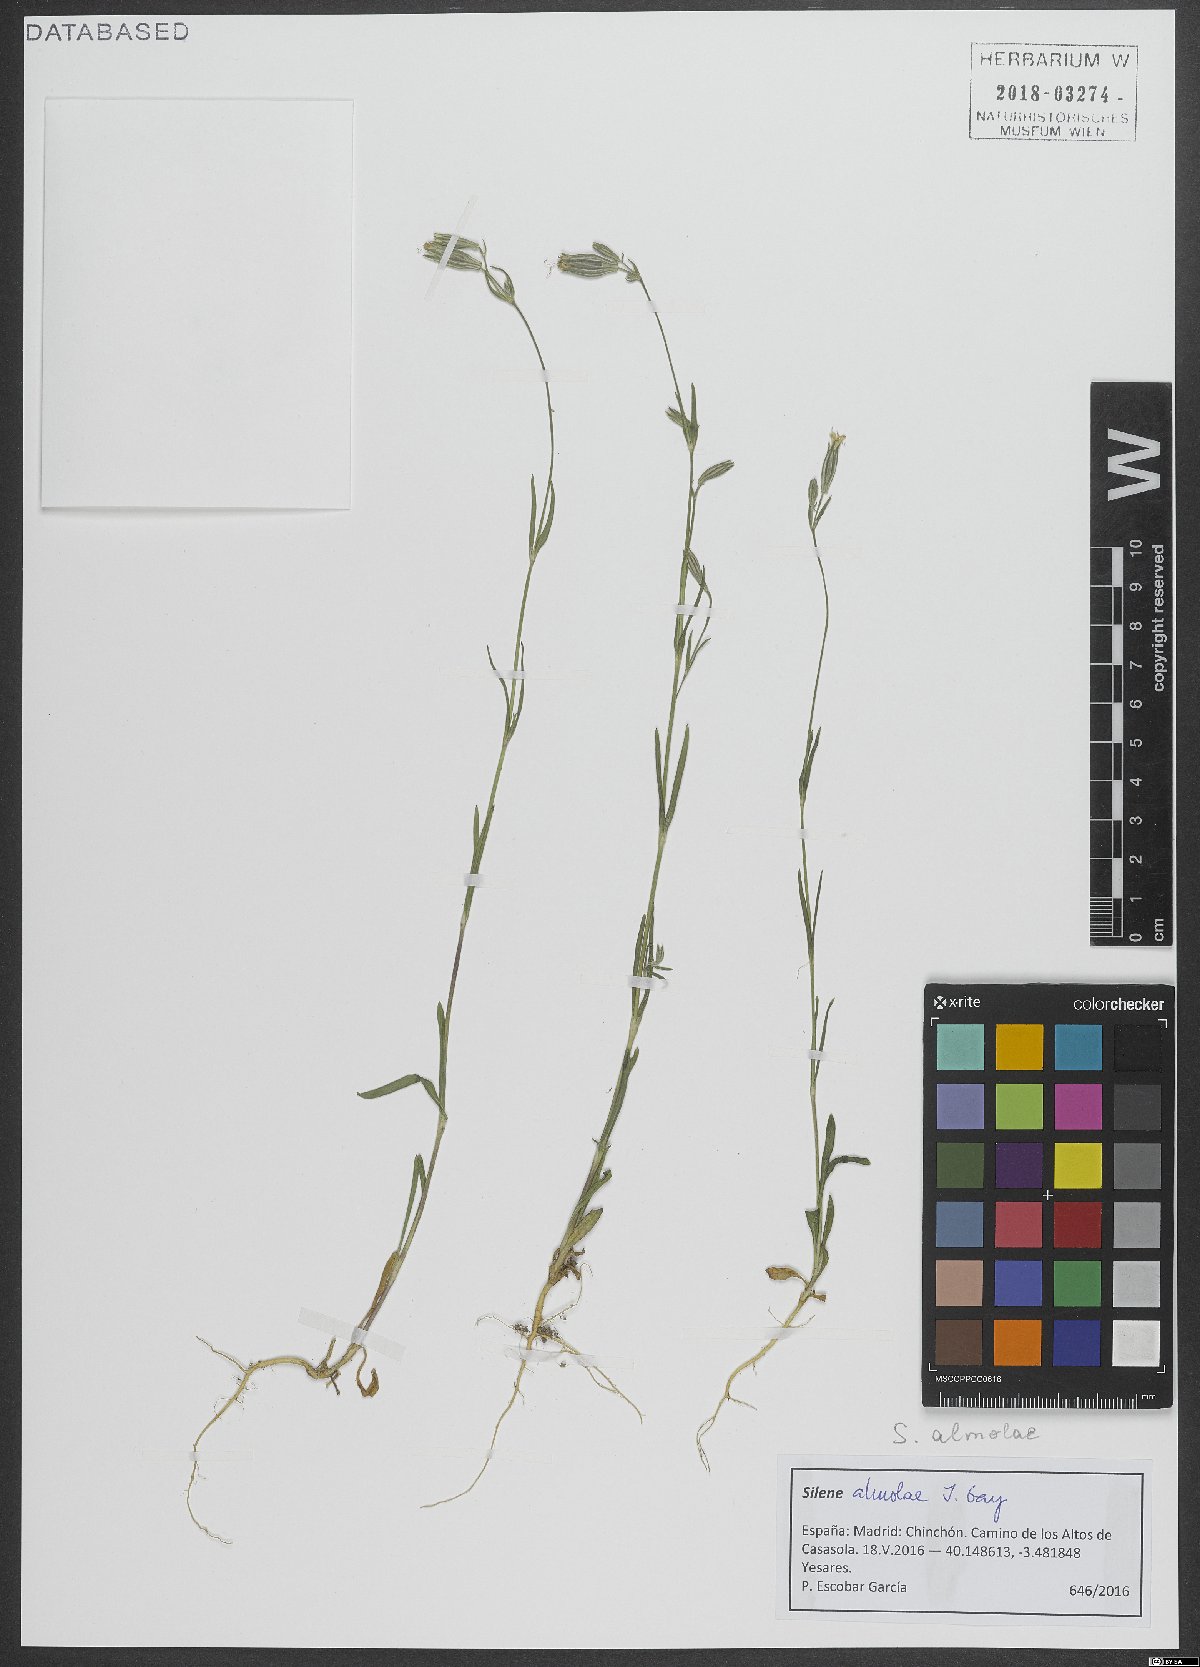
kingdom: Plantae
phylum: Tracheophyta
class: Magnoliopsida
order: Caryophyllales
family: Caryophyllaceae
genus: Silene
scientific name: Silene almolae
